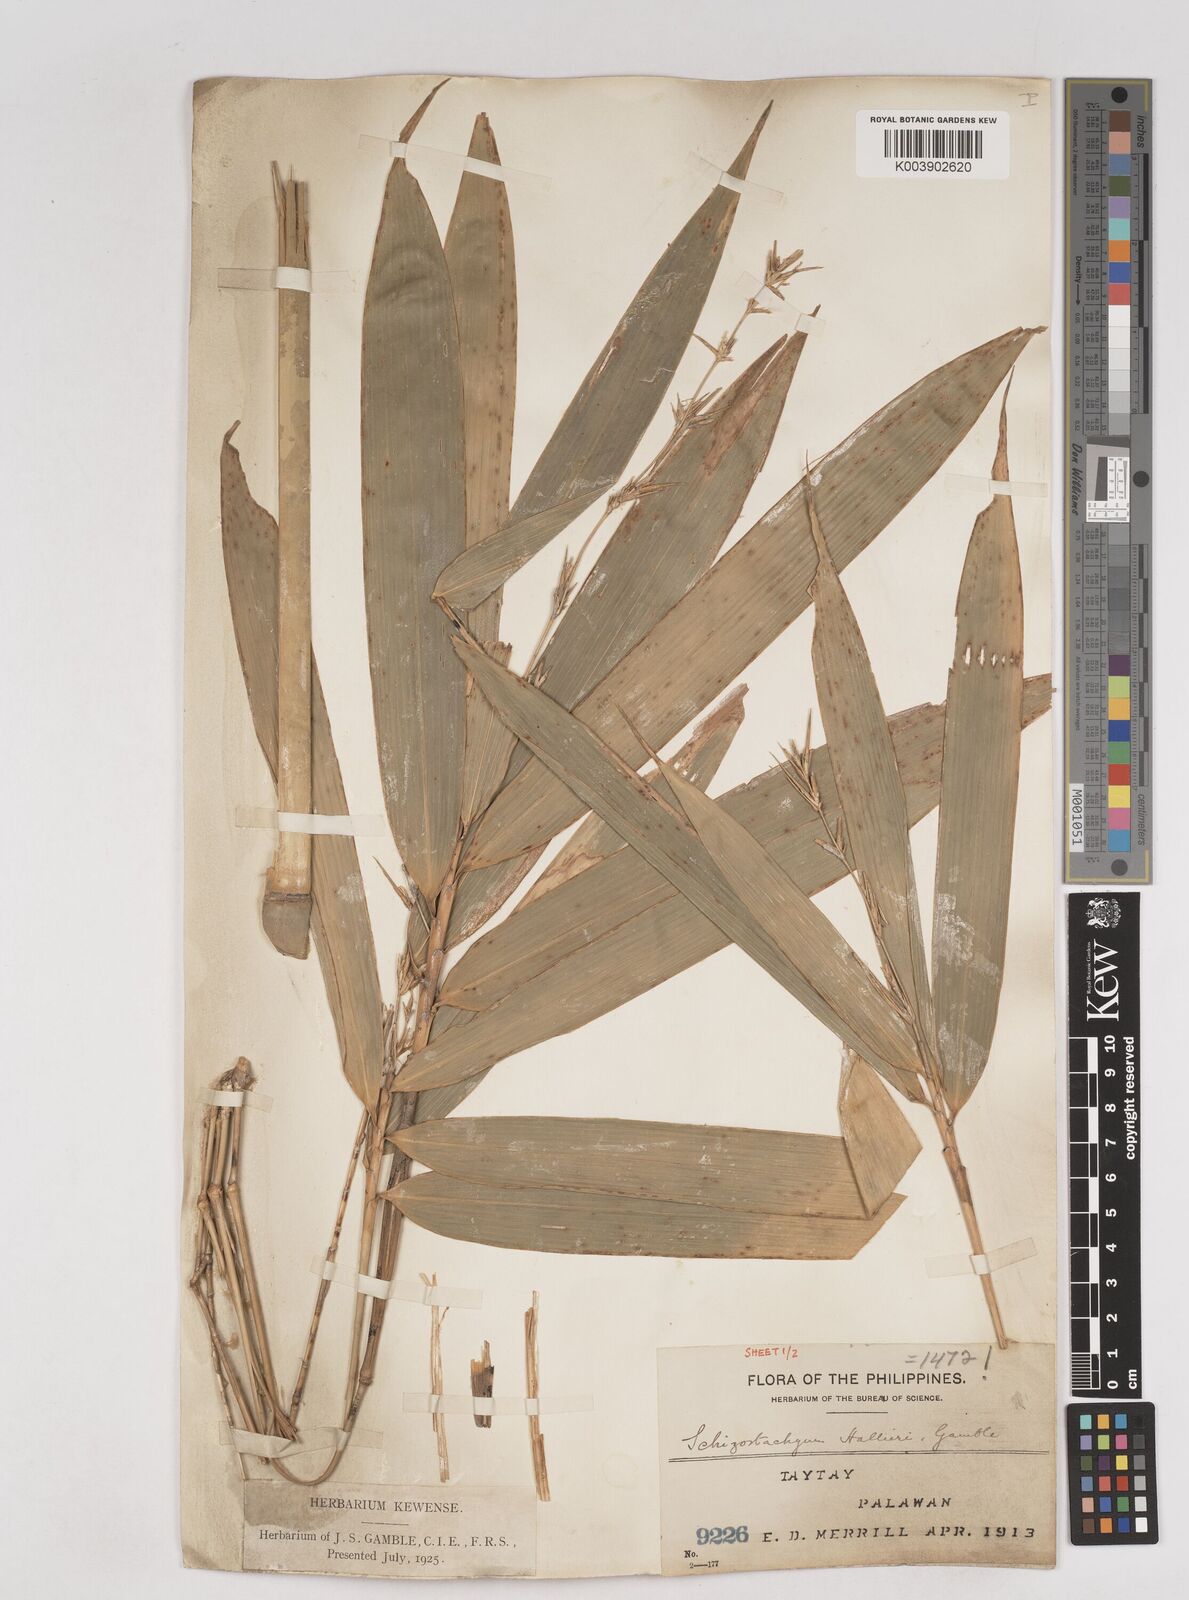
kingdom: Plantae
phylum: Tracheophyta
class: Liliopsida
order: Poales
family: Poaceae
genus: Schizostachyum
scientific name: Schizostachyum lima
